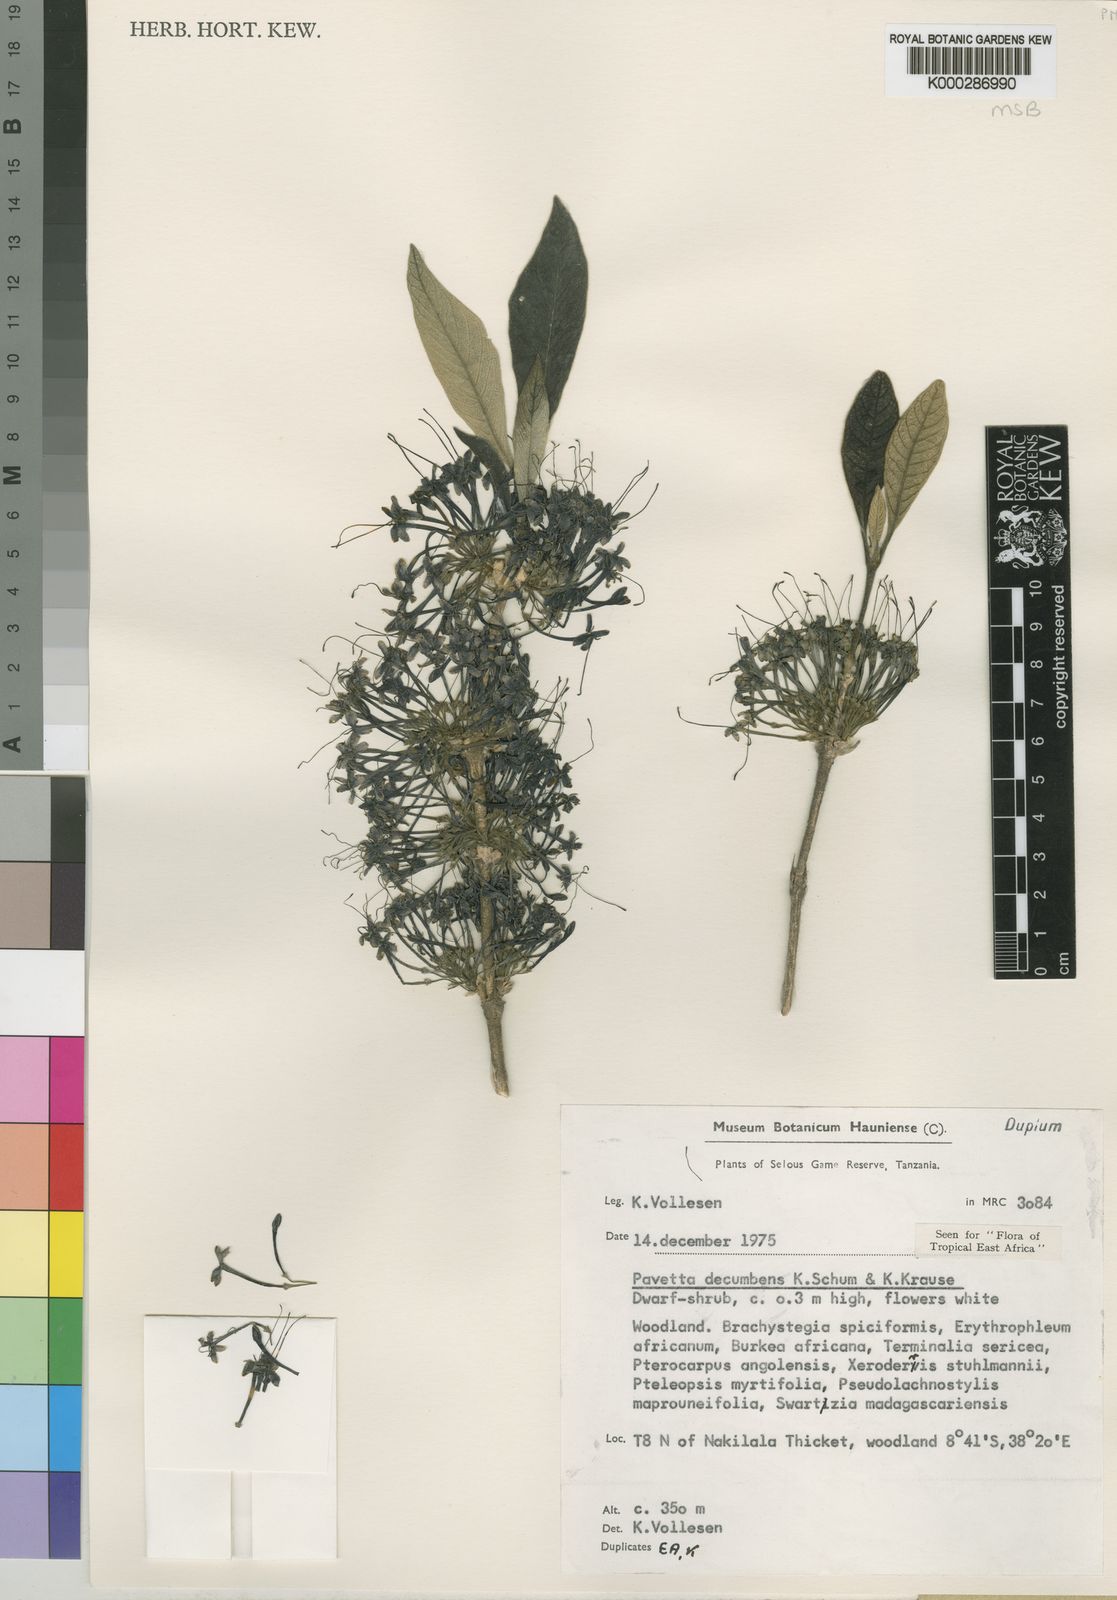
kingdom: Plantae
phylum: Tracheophyta
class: Magnoliopsida
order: Gentianales
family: Rubiaceae
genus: Pavetta
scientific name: Pavetta decumbens
